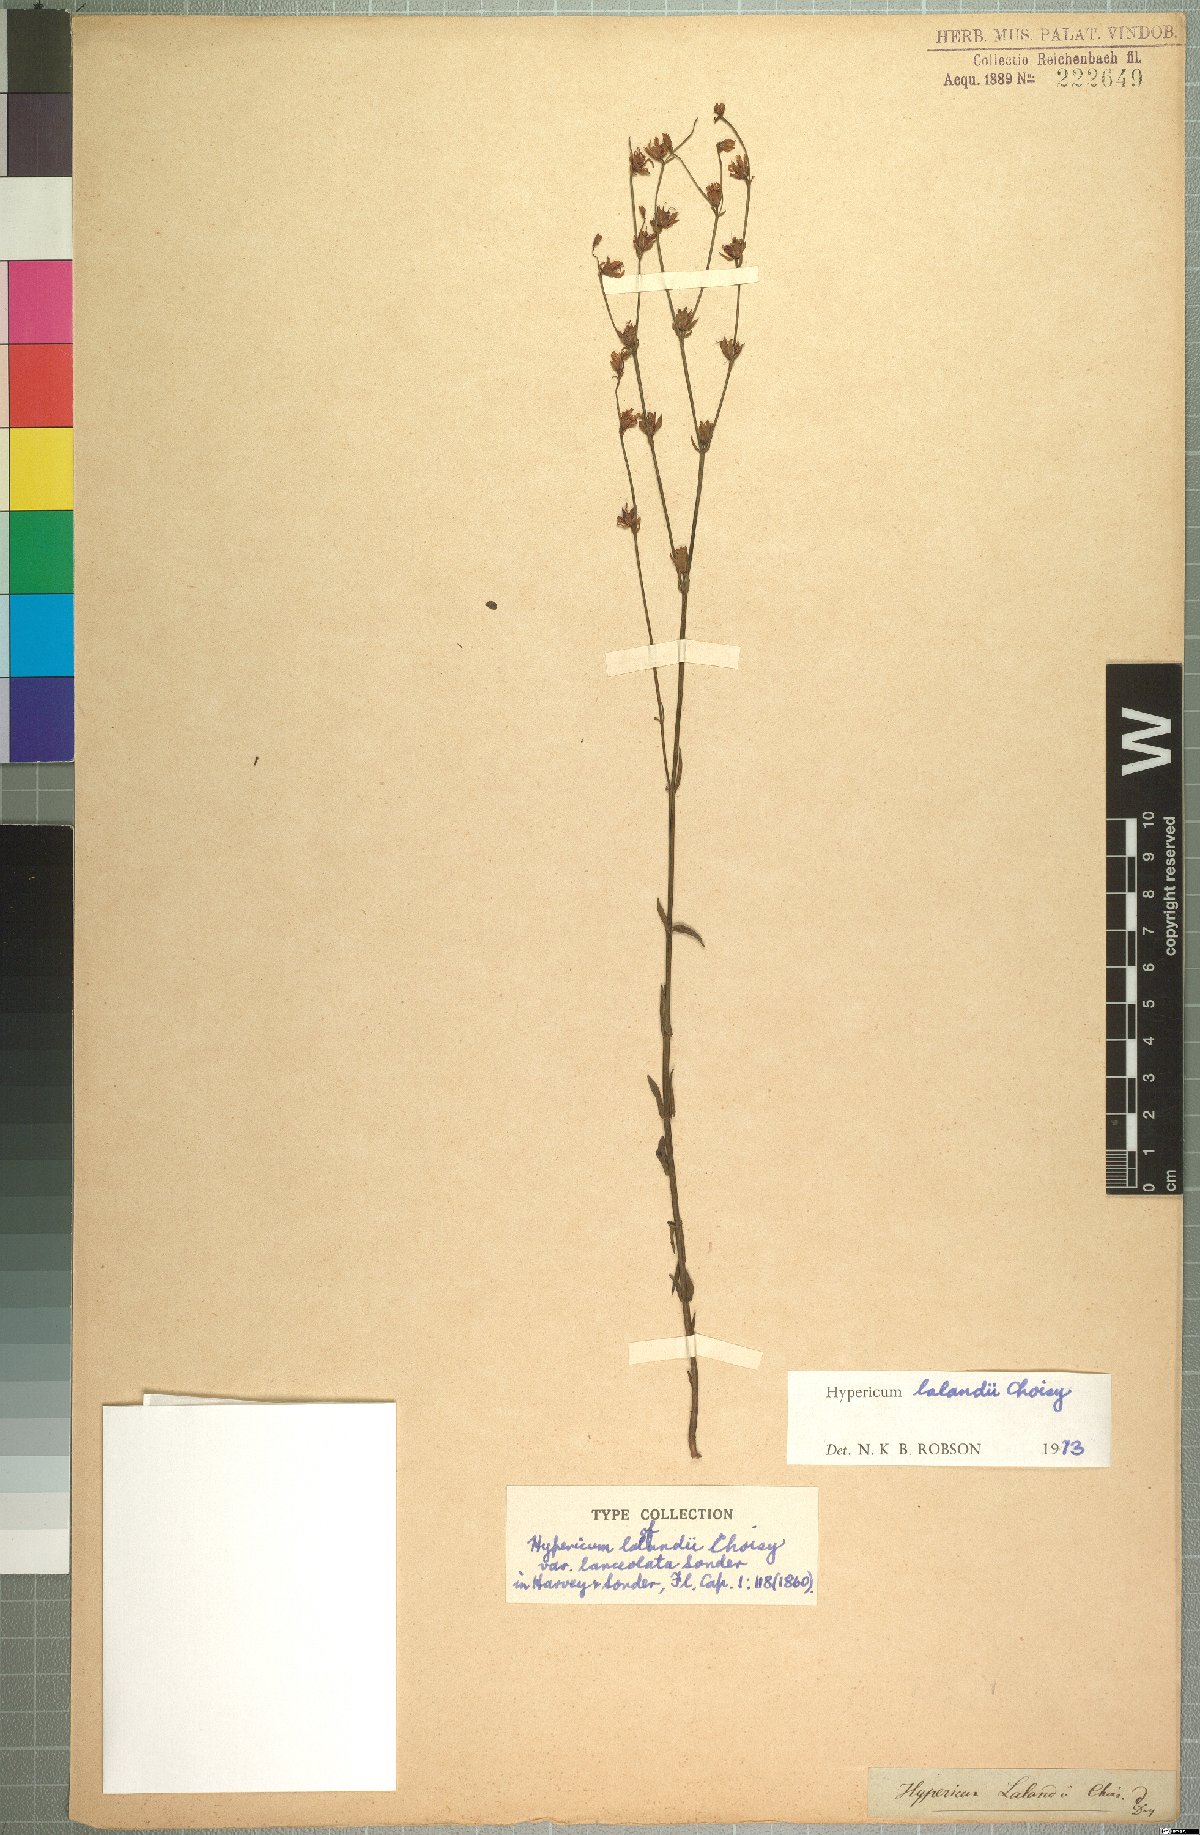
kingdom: Plantae
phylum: Tracheophyta
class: Magnoliopsida
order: Malpighiales
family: Hypericaceae
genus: Hypericum
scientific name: Hypericum lalandii
